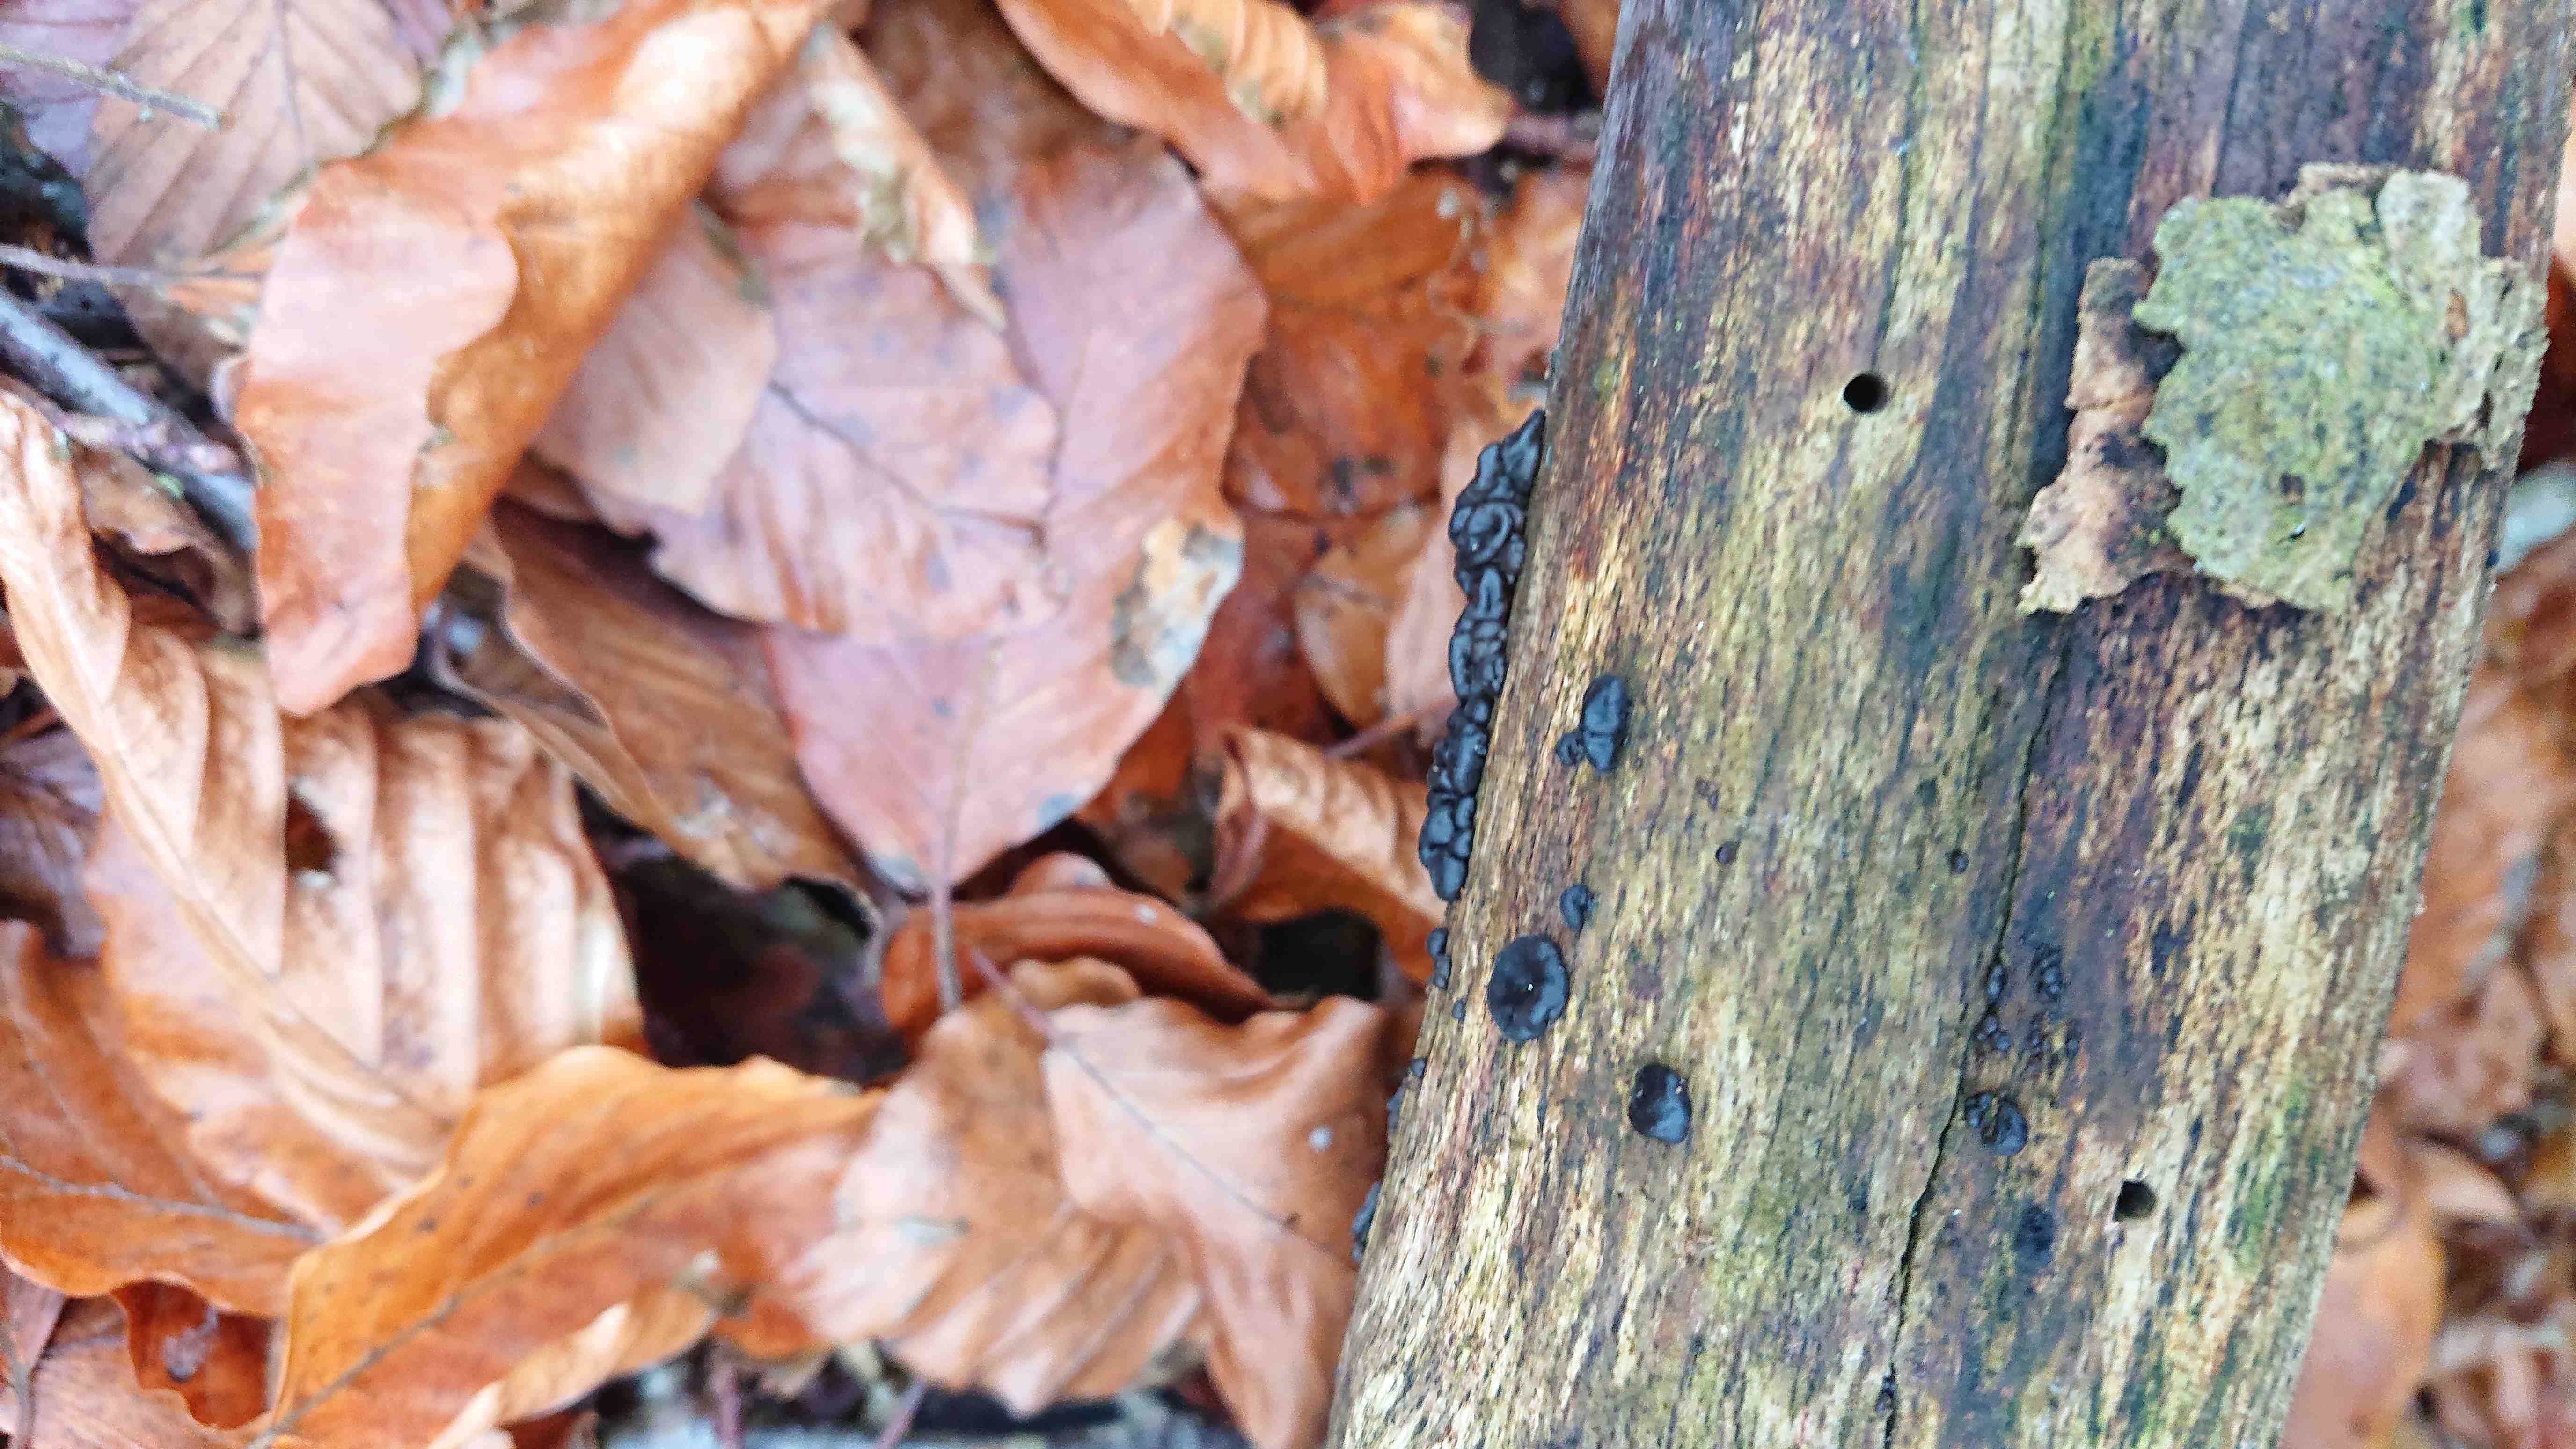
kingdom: Fungi
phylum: Basidiomycota
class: Agaricomycetes
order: Auriculariales
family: Auriculariaceae
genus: Exidia
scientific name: Exidia nigricans
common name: almindelig bævretop
